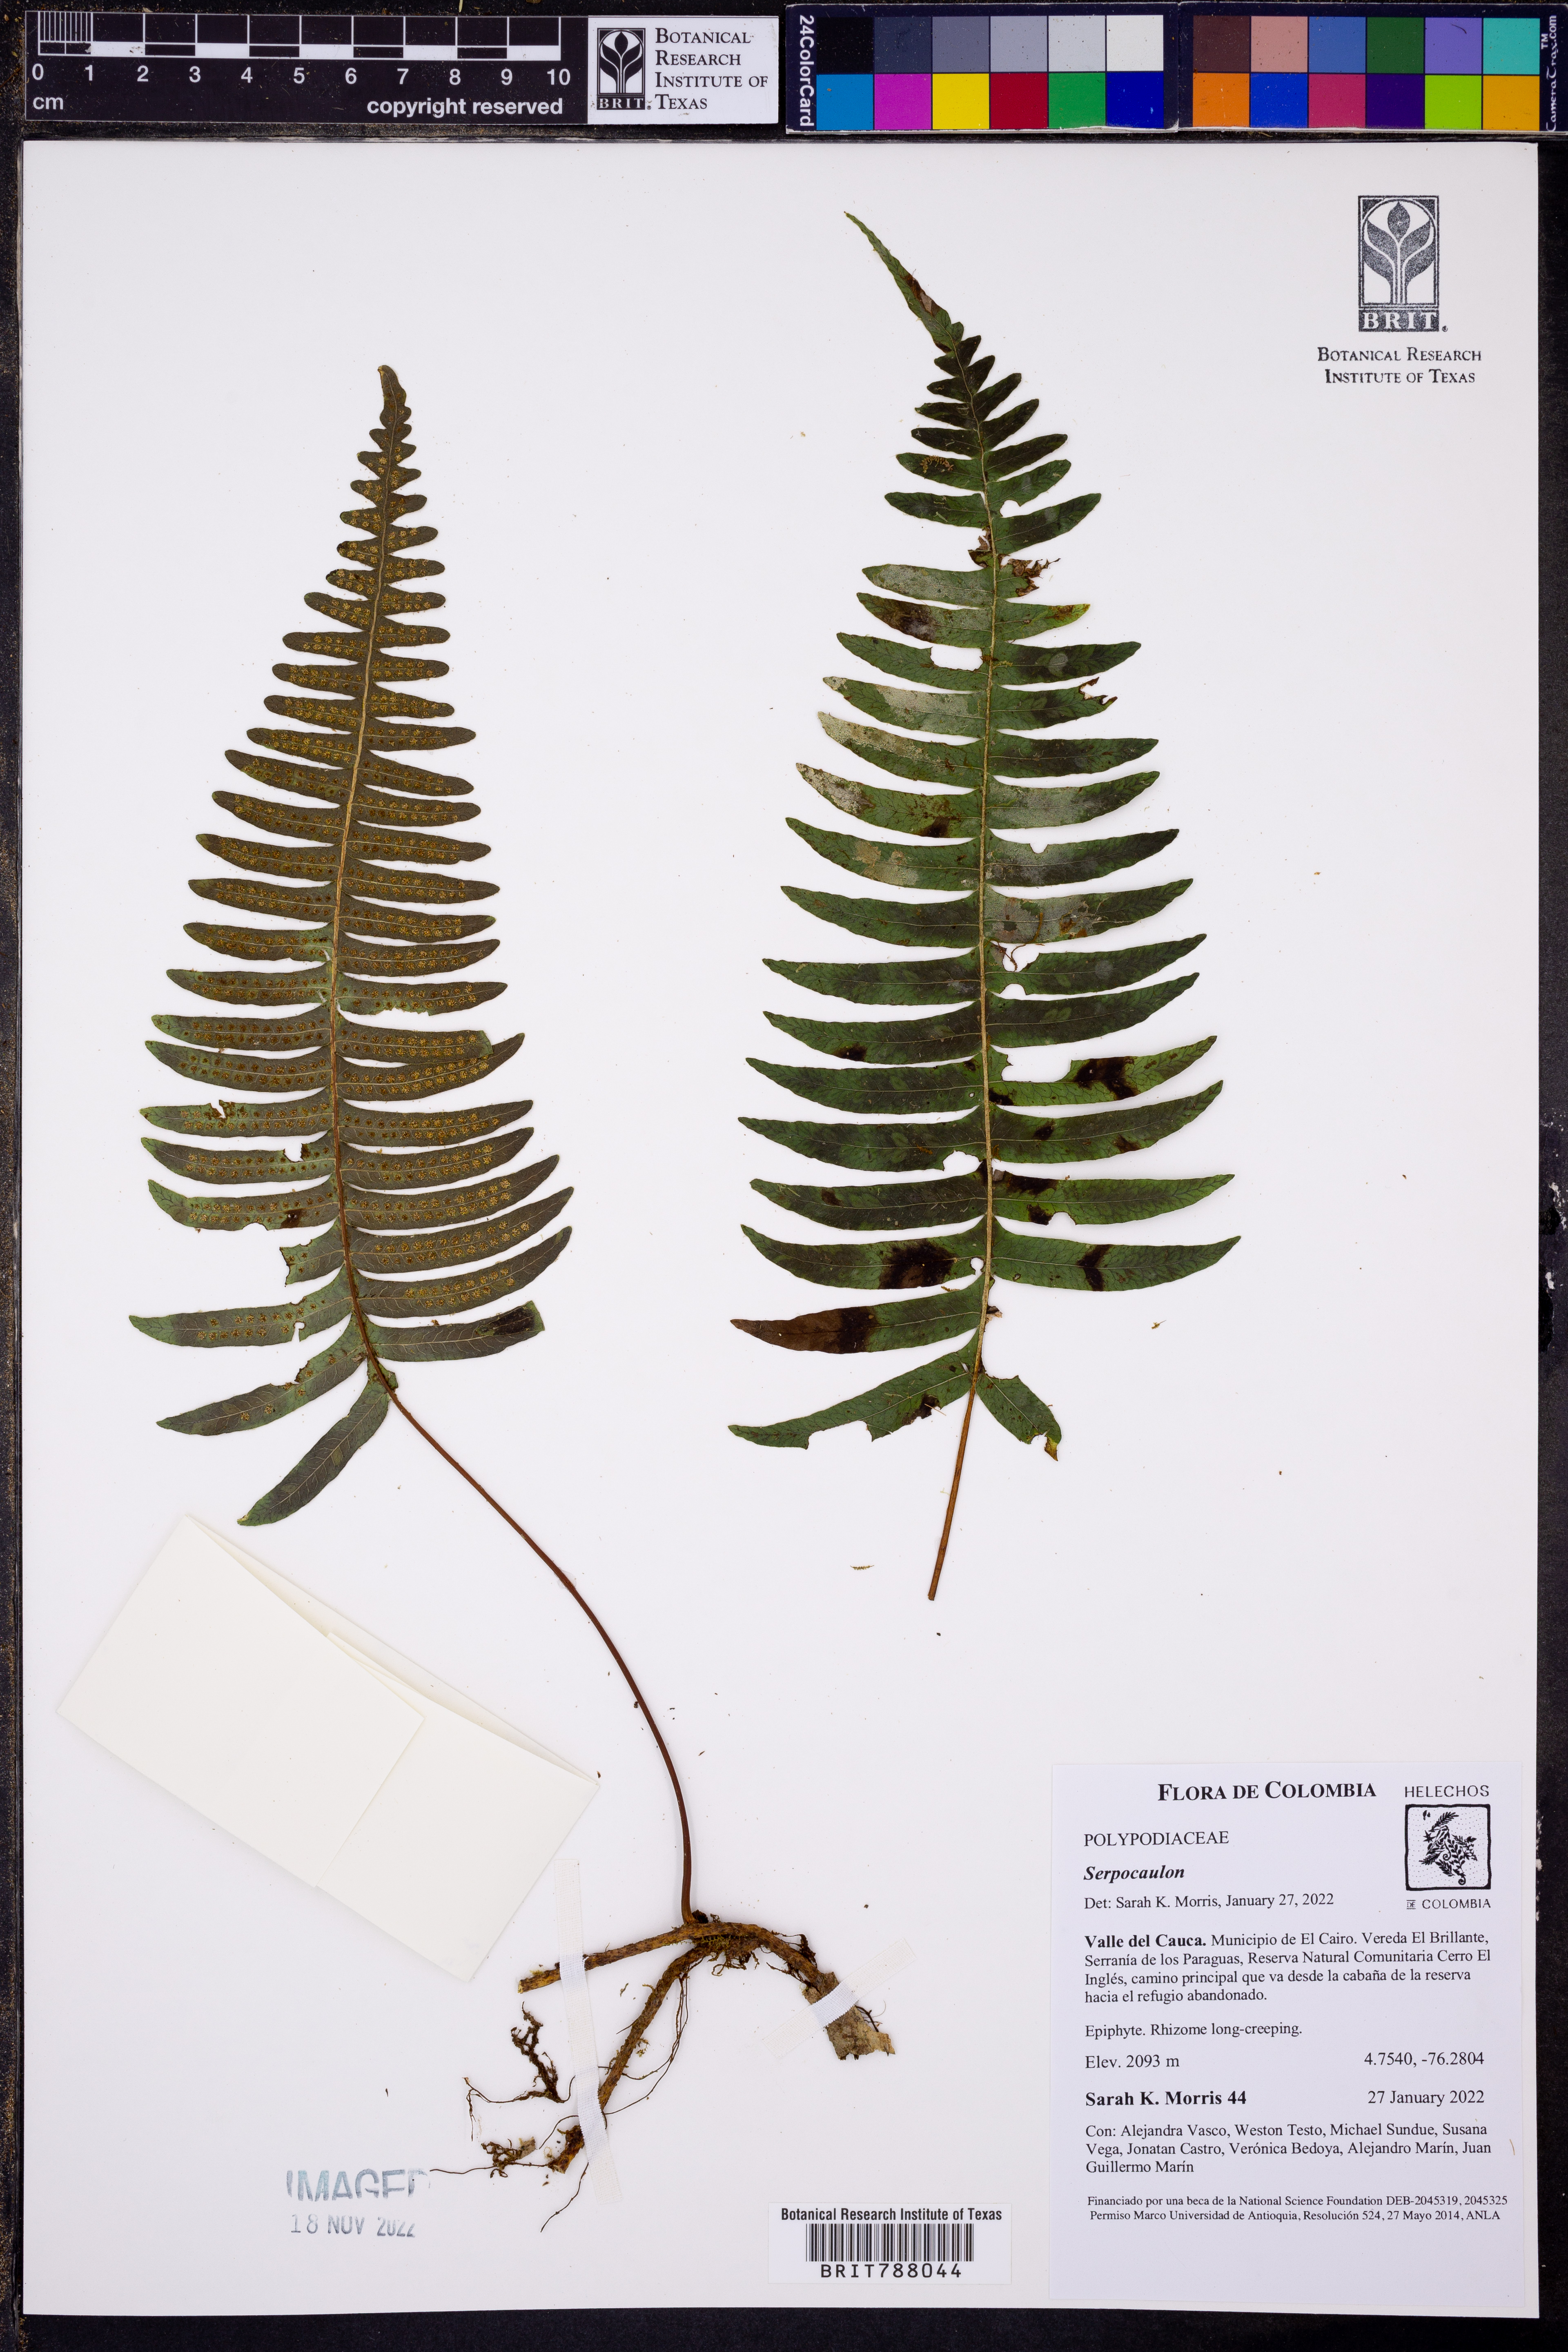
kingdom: Plantae
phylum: Tracheophyta
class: Polypodiopsida
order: Polypodiales
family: Polypodiaceae
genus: Serpocaulon
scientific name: Serpocaulon
